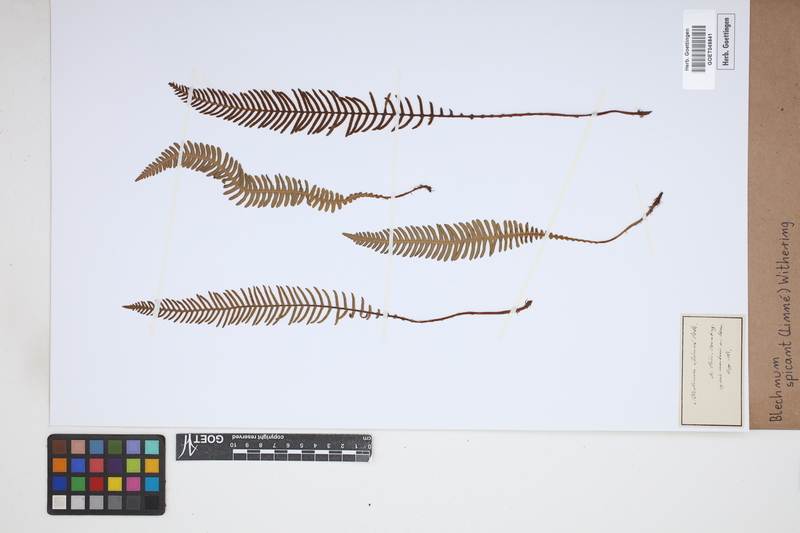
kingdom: Plantae
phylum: Tracheophyta
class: Polypodiopsida
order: Polypodiales
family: Blechnaceae
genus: Struthiopteris
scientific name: Struthiopteris spicant
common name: Deer fern
